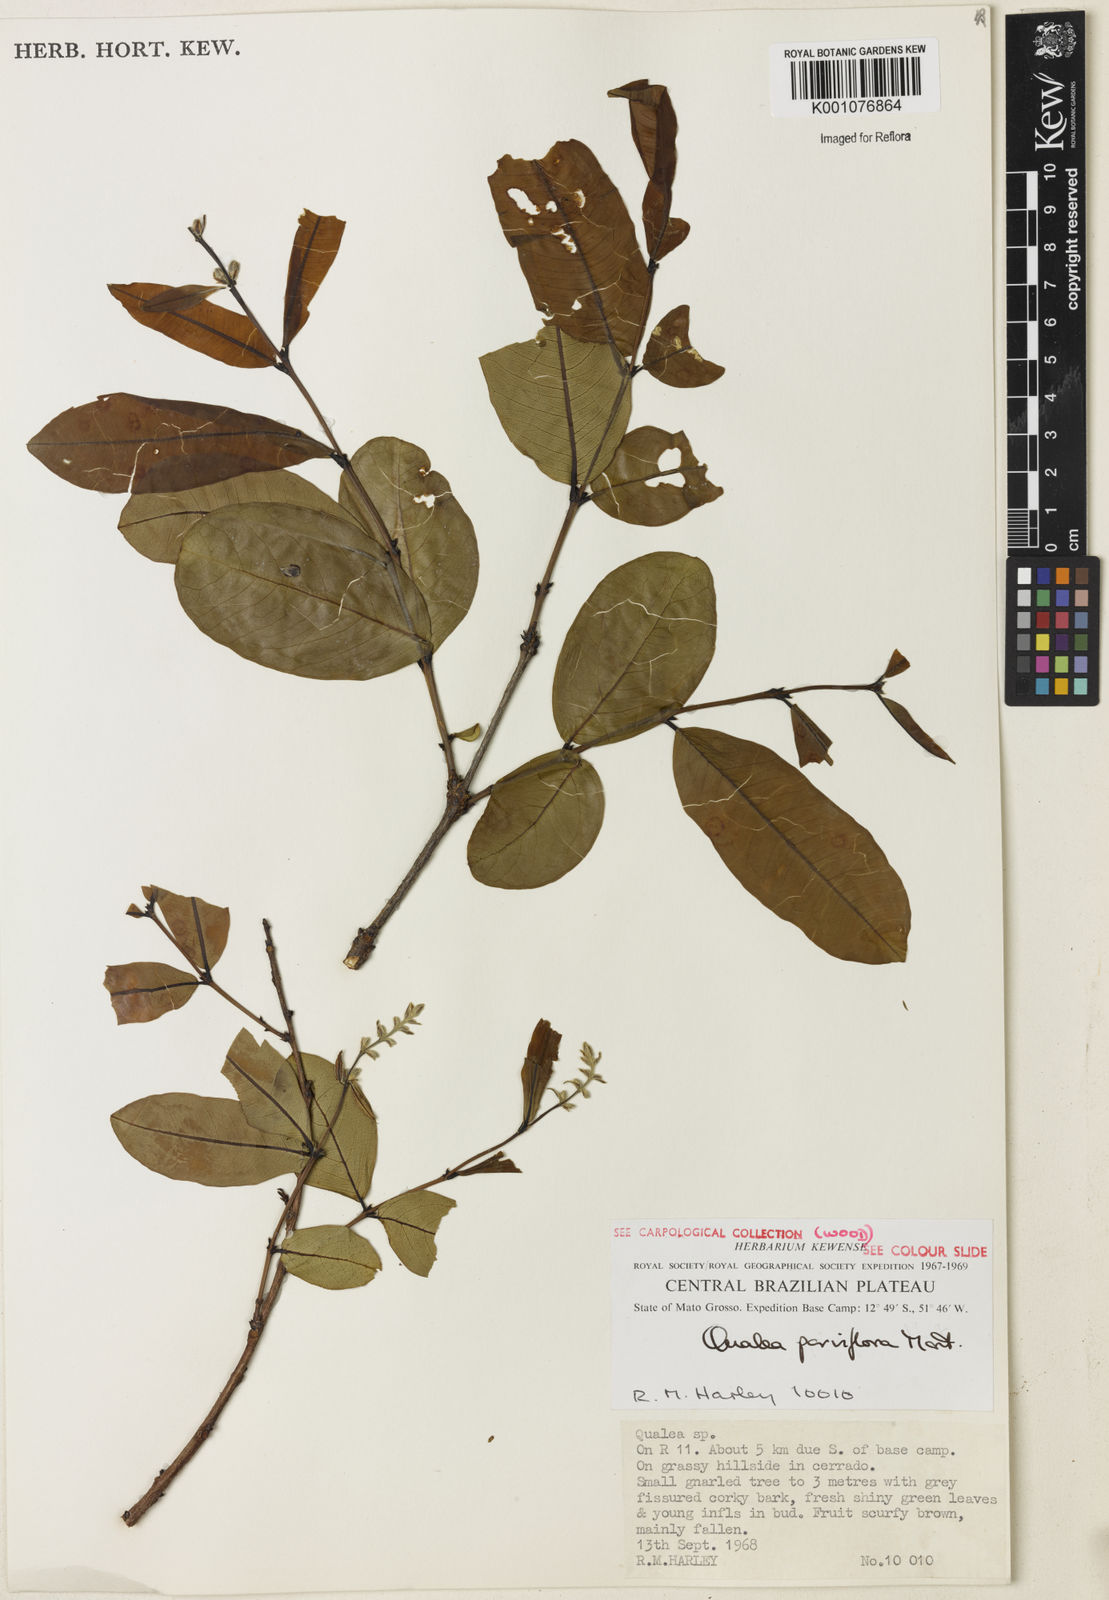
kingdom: Plantae
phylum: Tracheophyta
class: Magnoliopsida
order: Myrtales
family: Vochysiaceae
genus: Qualea
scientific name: Qualea parviflora
